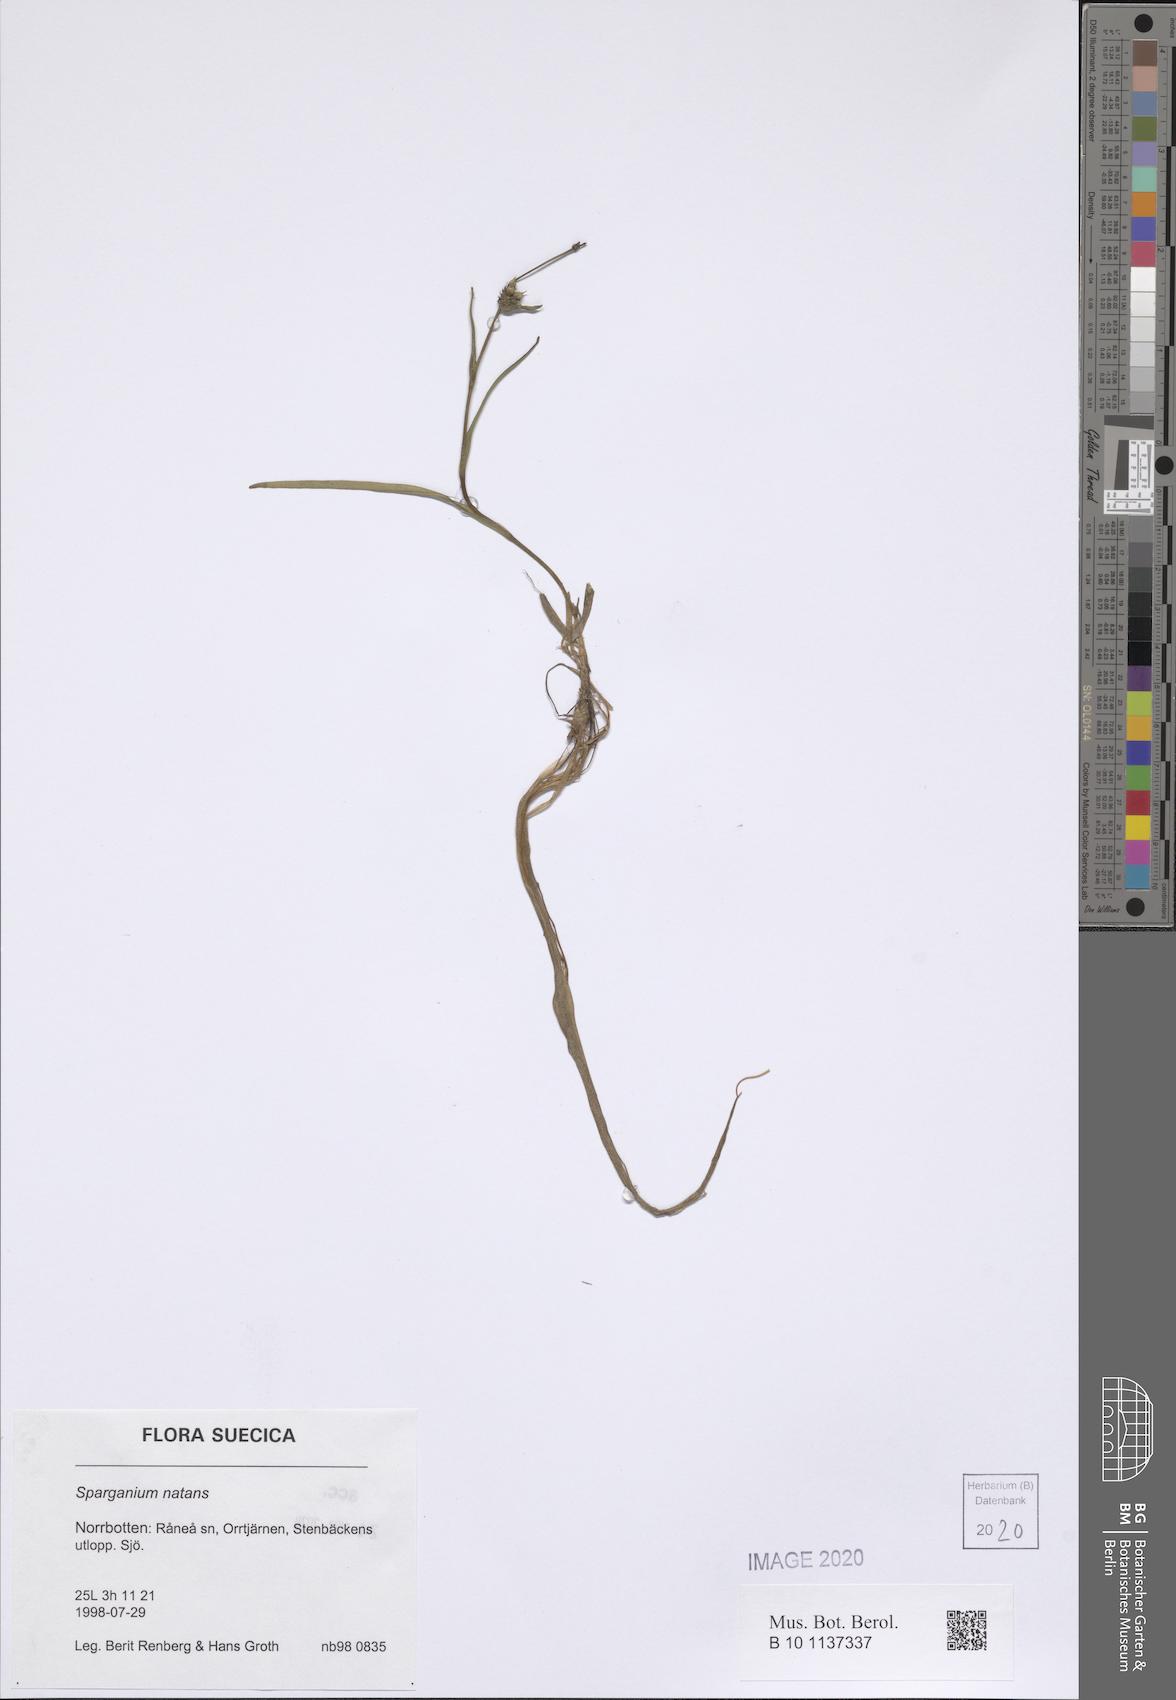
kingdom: Plantae
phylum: Tracheophyta
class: Liliopsida
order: Poales
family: Typhaceae
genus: Sparganium
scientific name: Sparganium natans
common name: Least bur-reed
